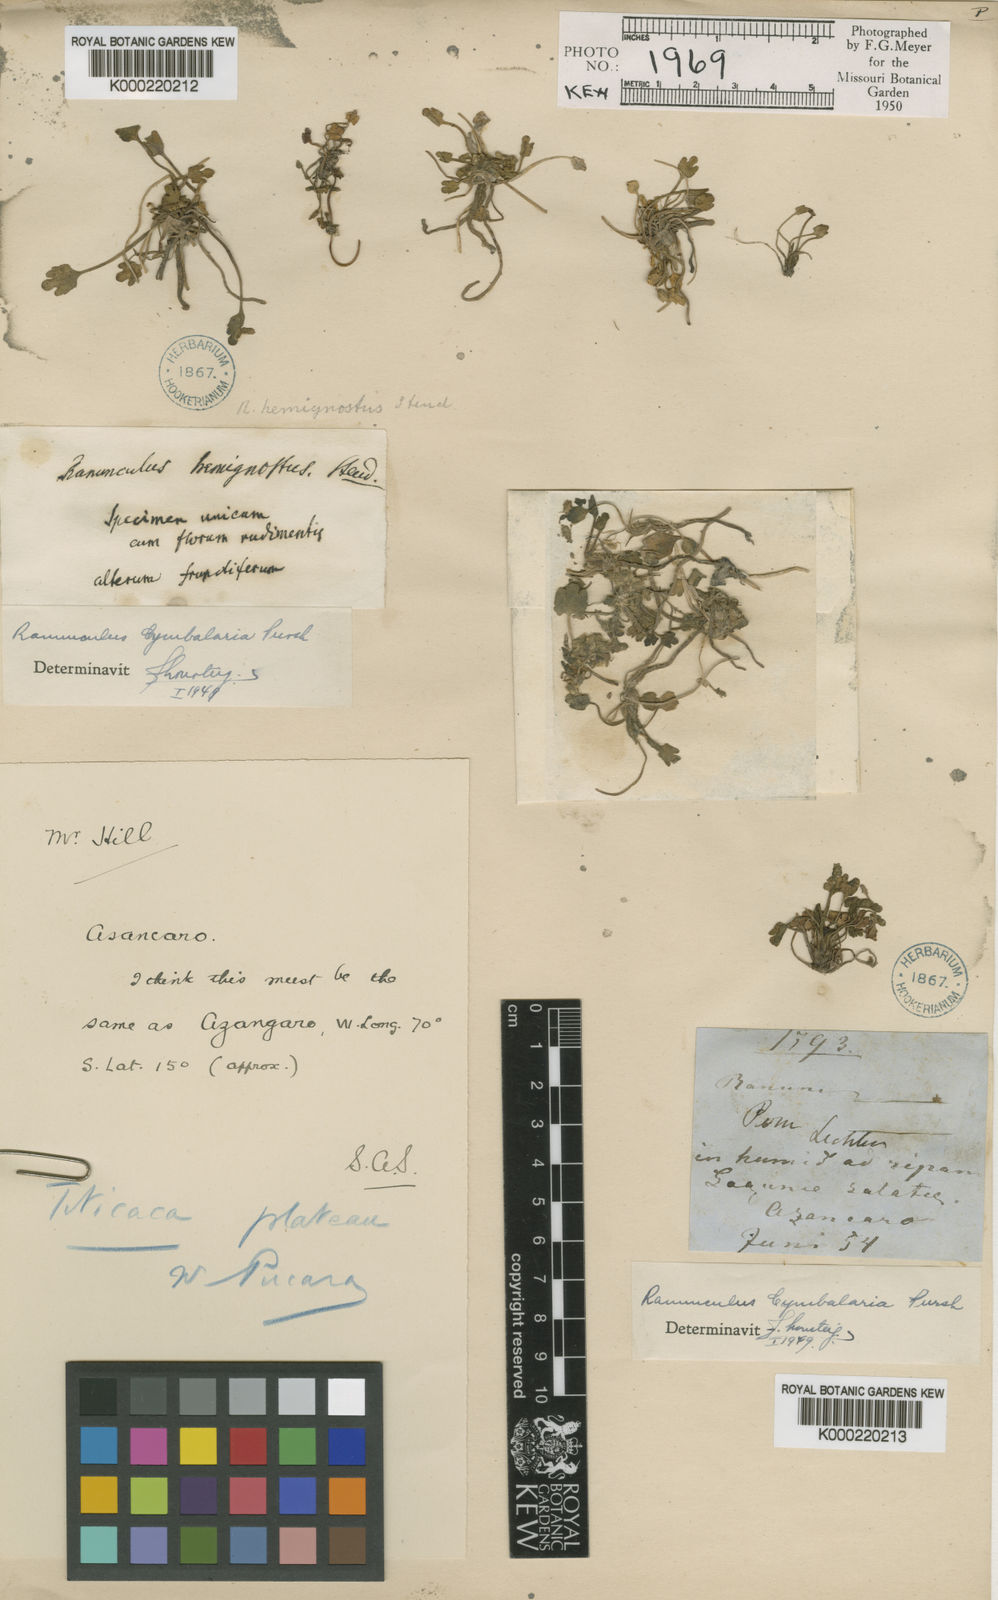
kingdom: Plantae
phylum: Tracheophyta
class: Magnoliopsida
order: Ranunculales
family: Ranunculaceae
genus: Halerpestes
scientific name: Halerpestes cymbalaria
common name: Seaside crowfoot
